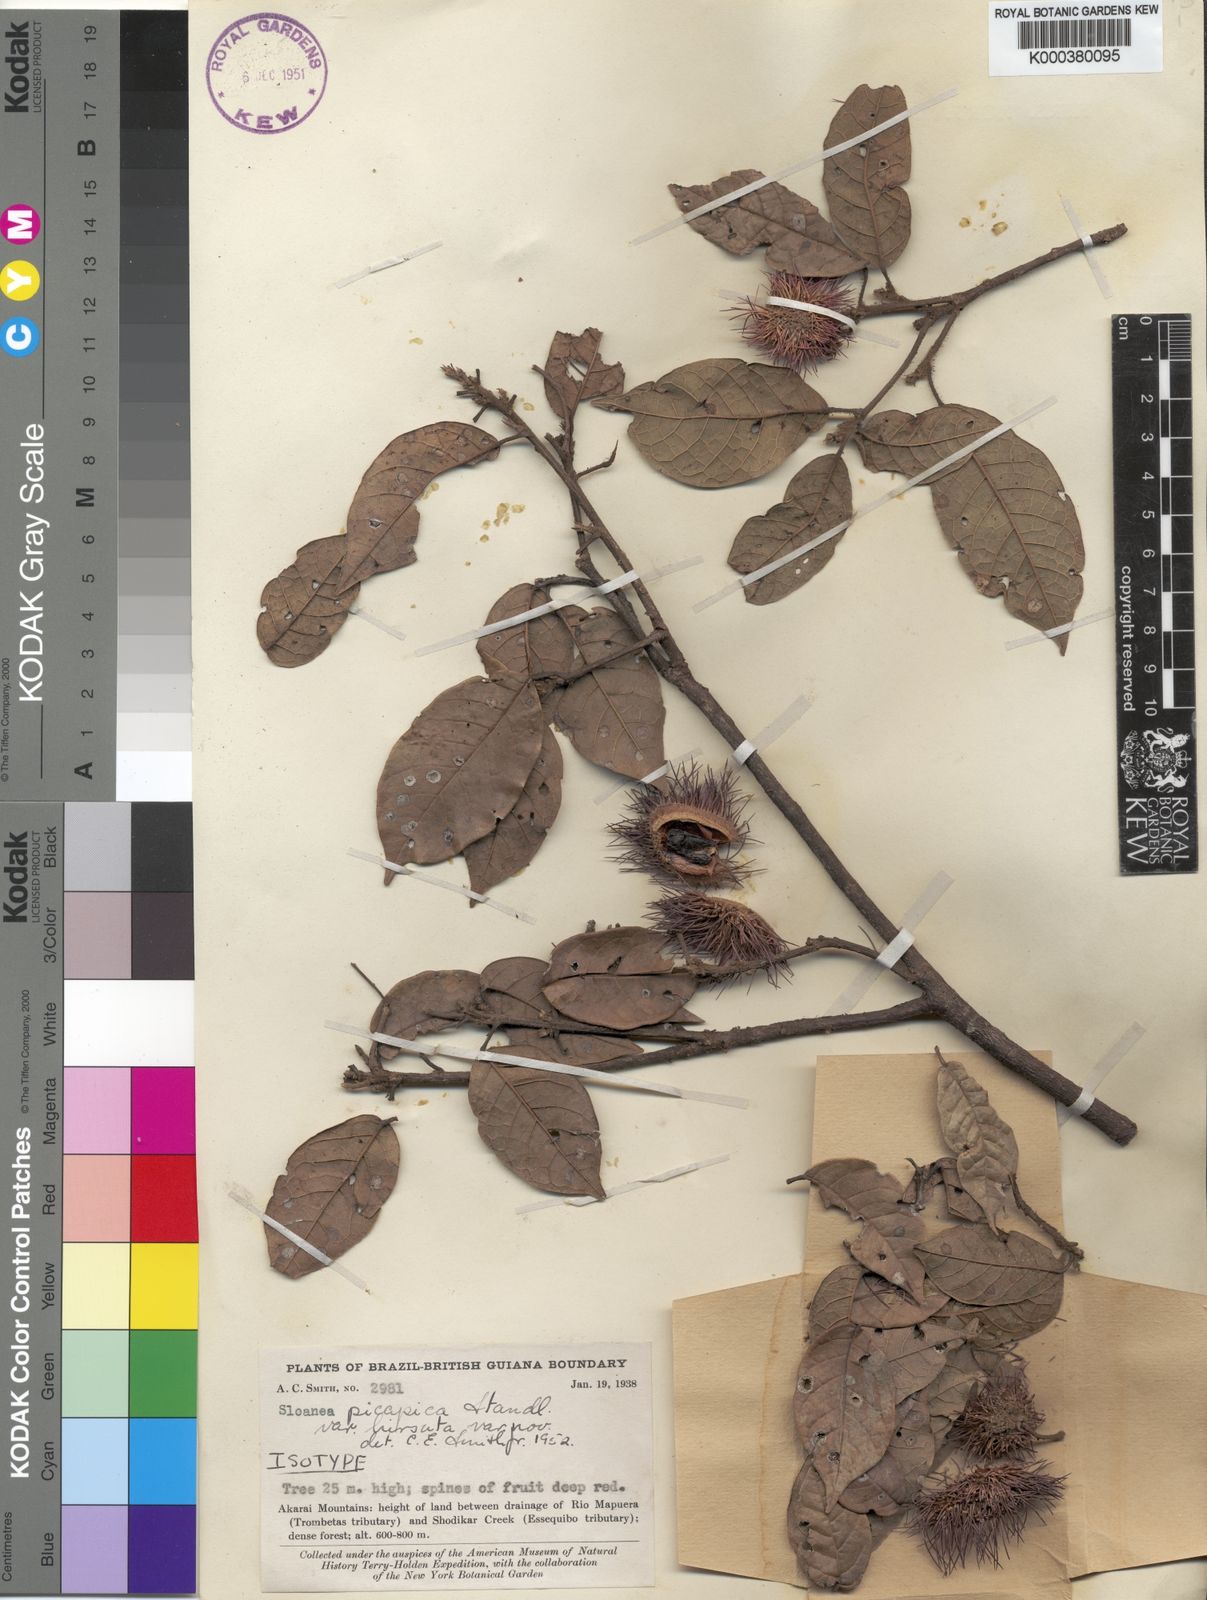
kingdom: Plantae
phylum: Tracheophyta
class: Magnoliopsida
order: Oxalidales
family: Elaeocarpaceae
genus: Sloanea
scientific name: Sloanea akaraiensis
